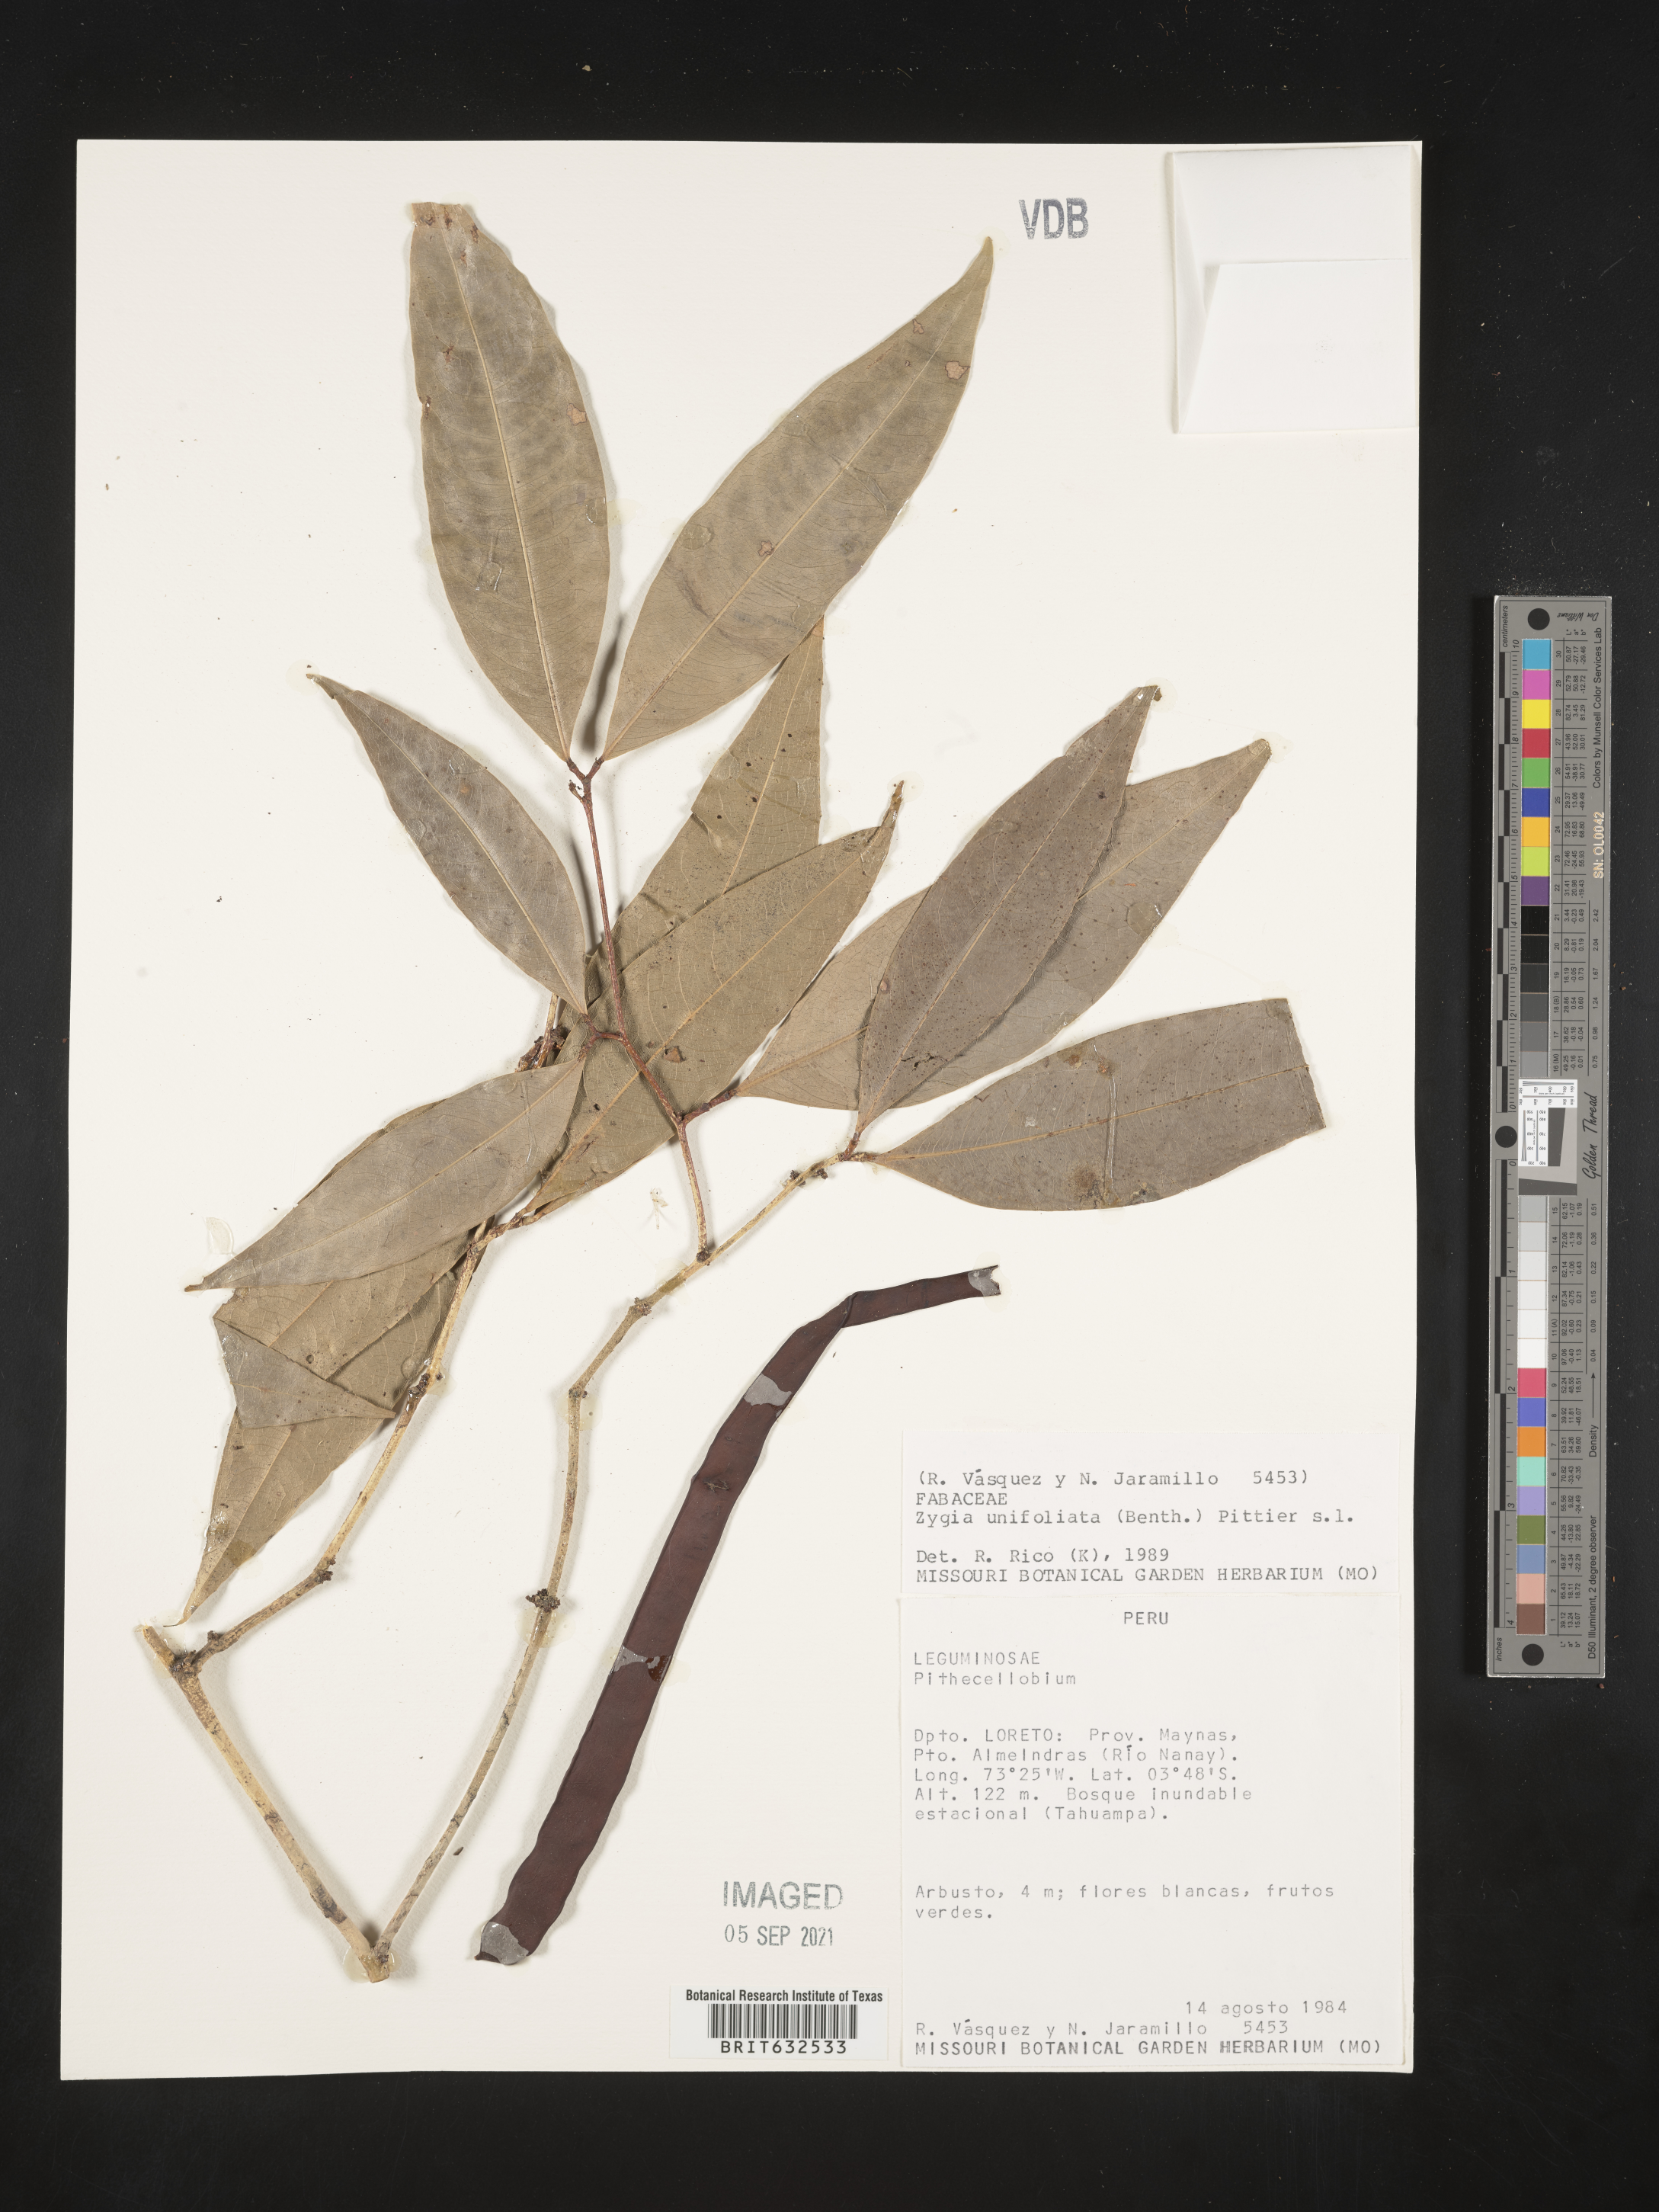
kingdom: Plantae
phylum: Tracheophyta
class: Magnoliopsida
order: Fabales
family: Fabaceae
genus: Zygia
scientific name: Zygia
